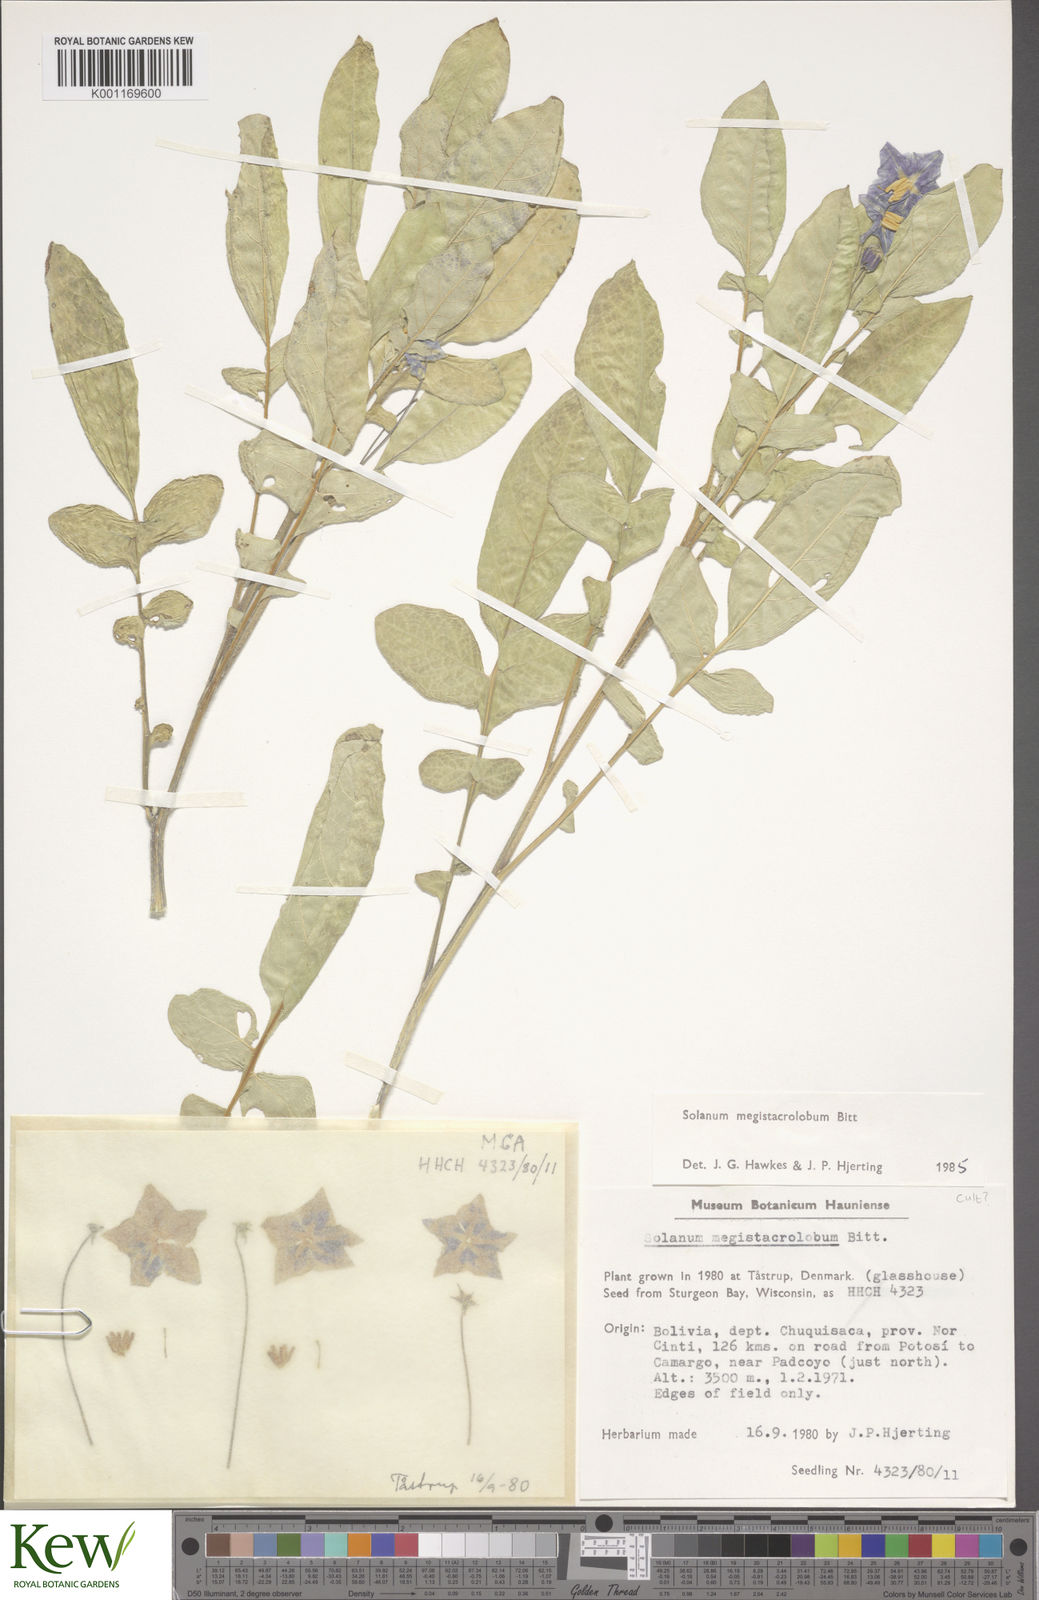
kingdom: Plantae
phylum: Tracheophyta
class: Magnoliopsida
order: Solanales
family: Solanaceae
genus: Solanum
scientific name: Solanum boliviense
